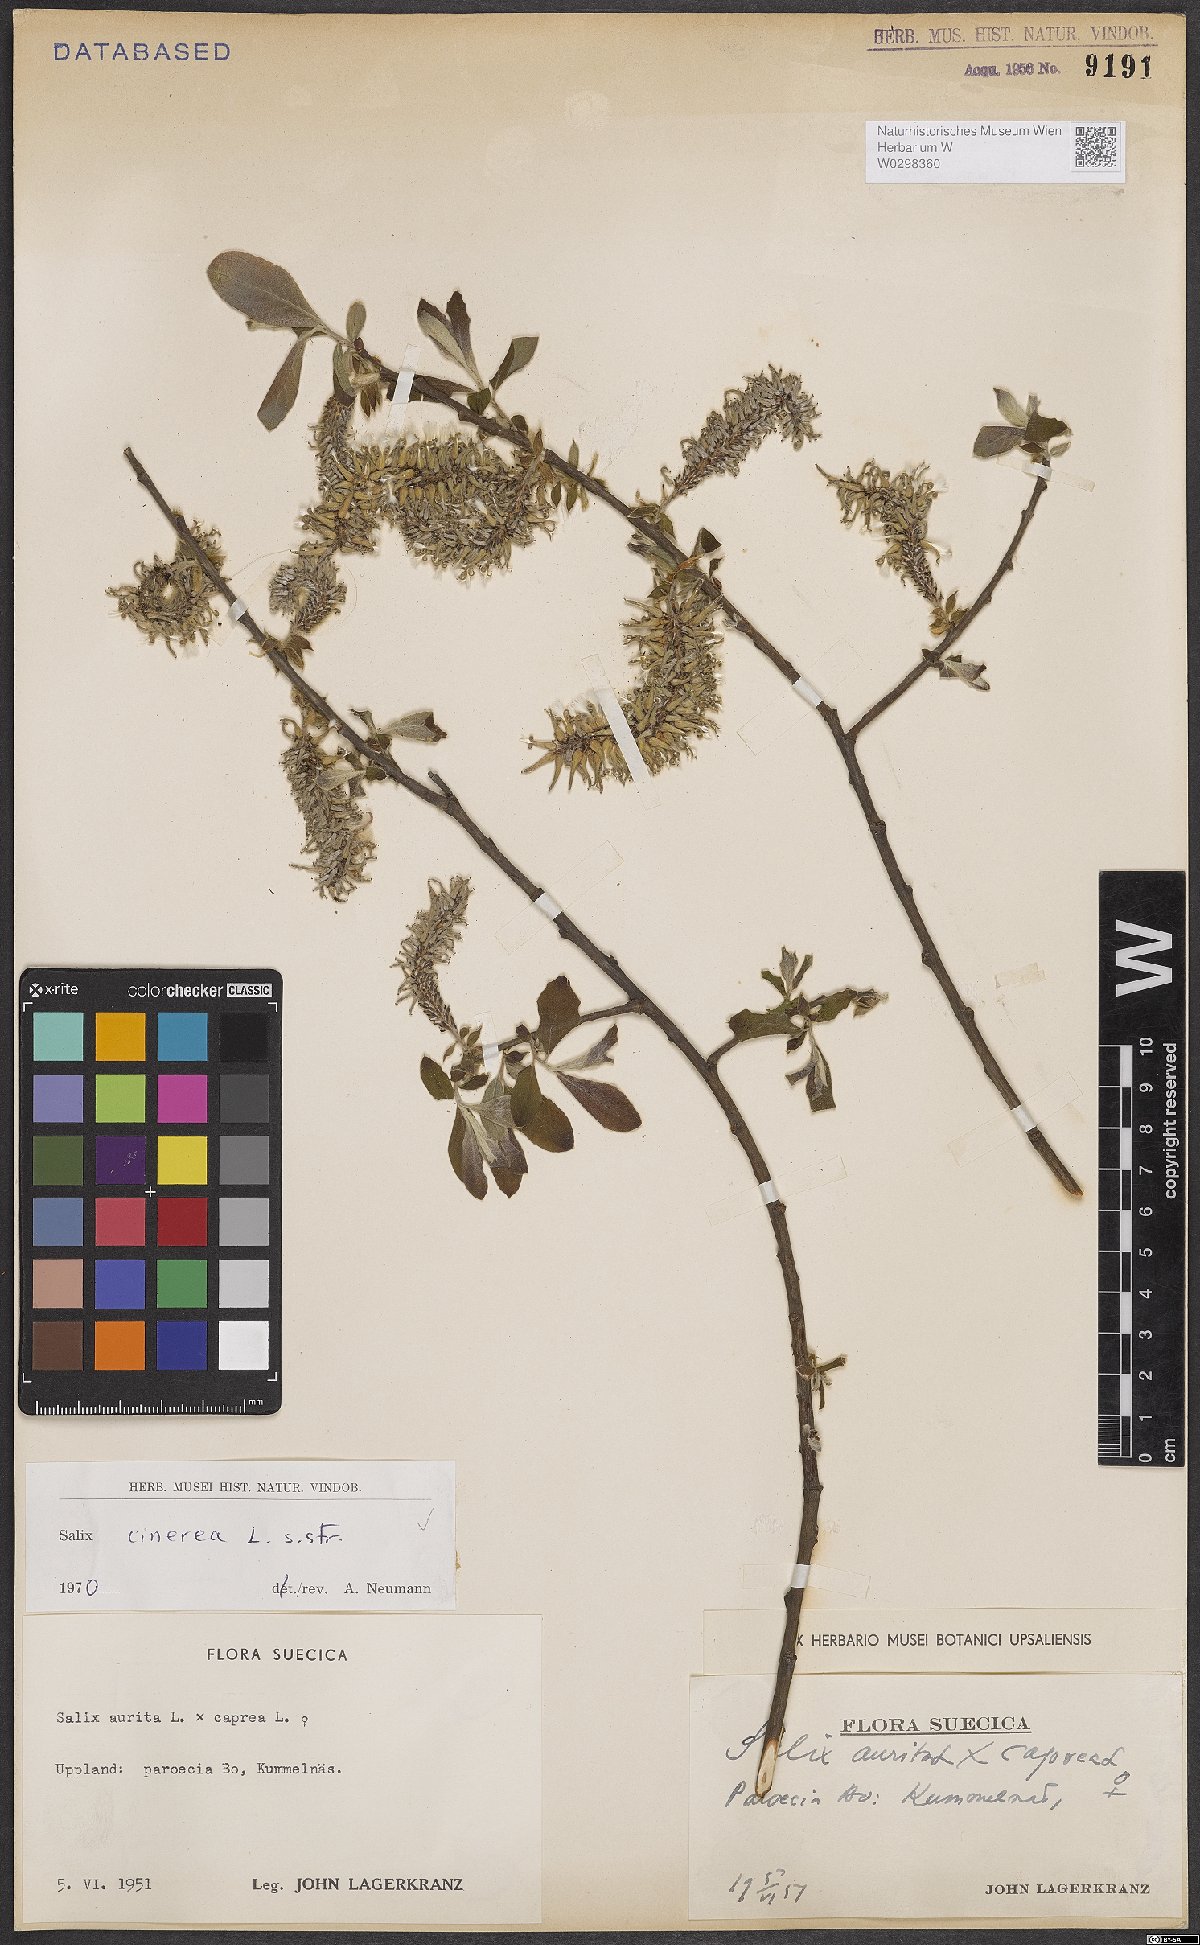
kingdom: Plantae
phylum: Tracheophyta
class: Magnoliopsida
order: Malpighiales
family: Salicaceae
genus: Salix
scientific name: Salix cinerea
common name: Common sallow
